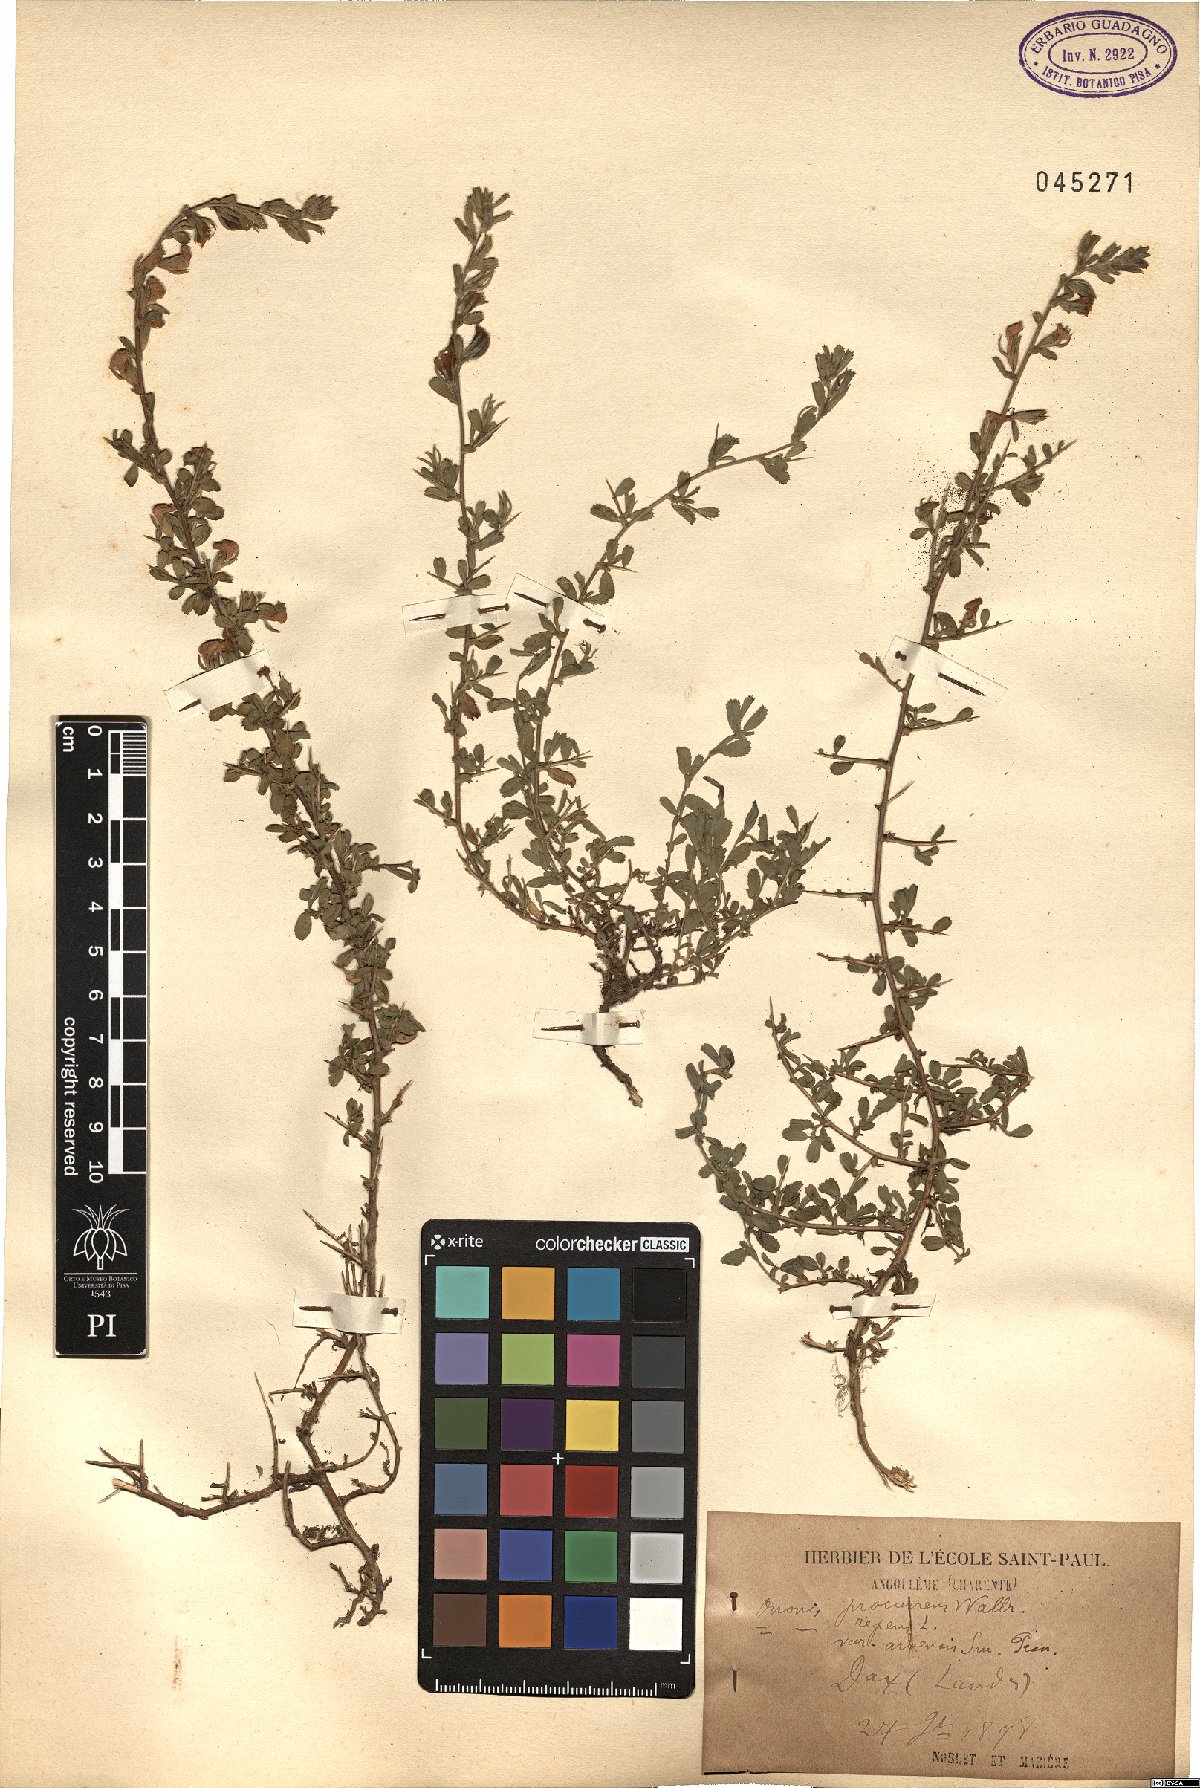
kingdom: Plantae
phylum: Tracheophyta
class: Magnoliopsida
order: Fabales
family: Fabaceae
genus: Ononis
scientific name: Ononis spinosa
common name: Spiny restharrow
